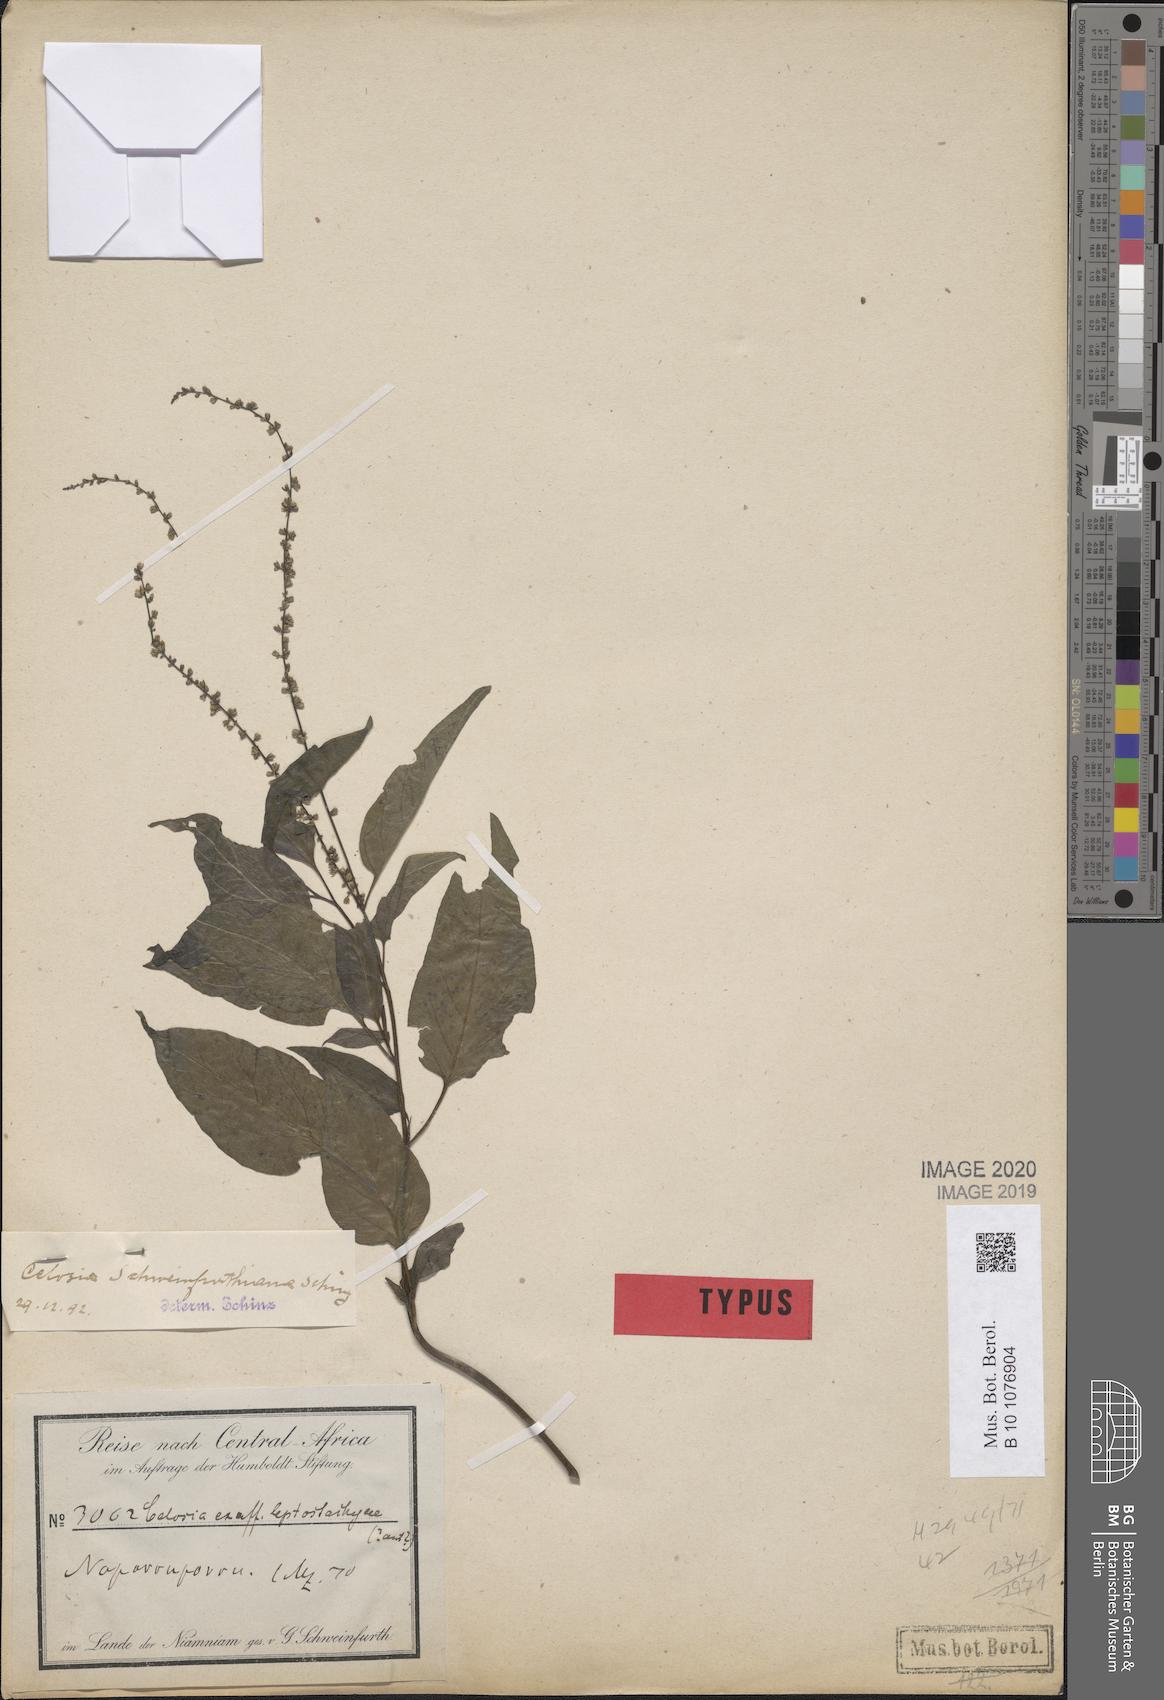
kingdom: Plantae
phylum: Tracheophyta
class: Magnoliopsida
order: Caryophyllales
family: Amaranthaceae
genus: Celosia
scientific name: Celosia schweinfurthiana
